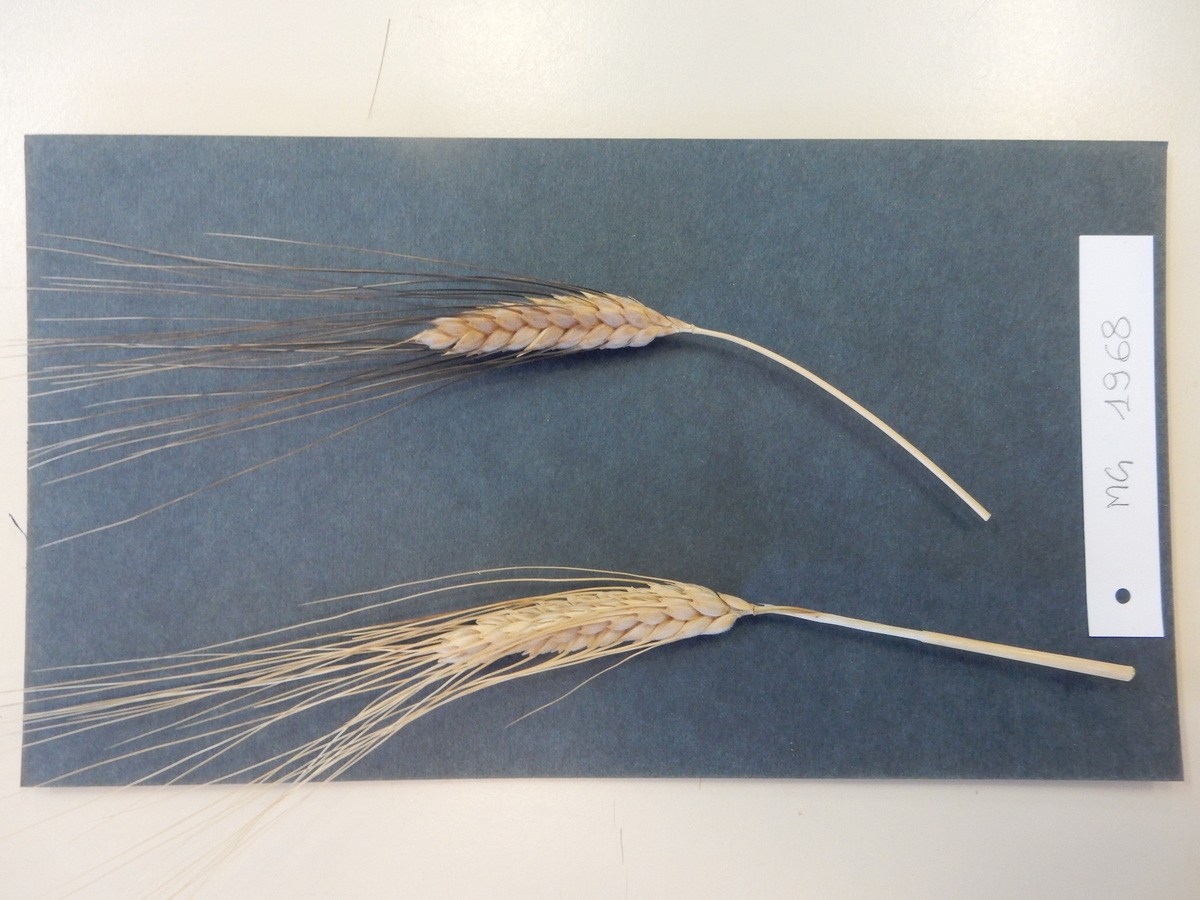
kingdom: Plantae
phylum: Tracheophyta
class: Liliopsida
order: Poales
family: Poaceae
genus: Triticum
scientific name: Triticum aestivum
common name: Wheat
